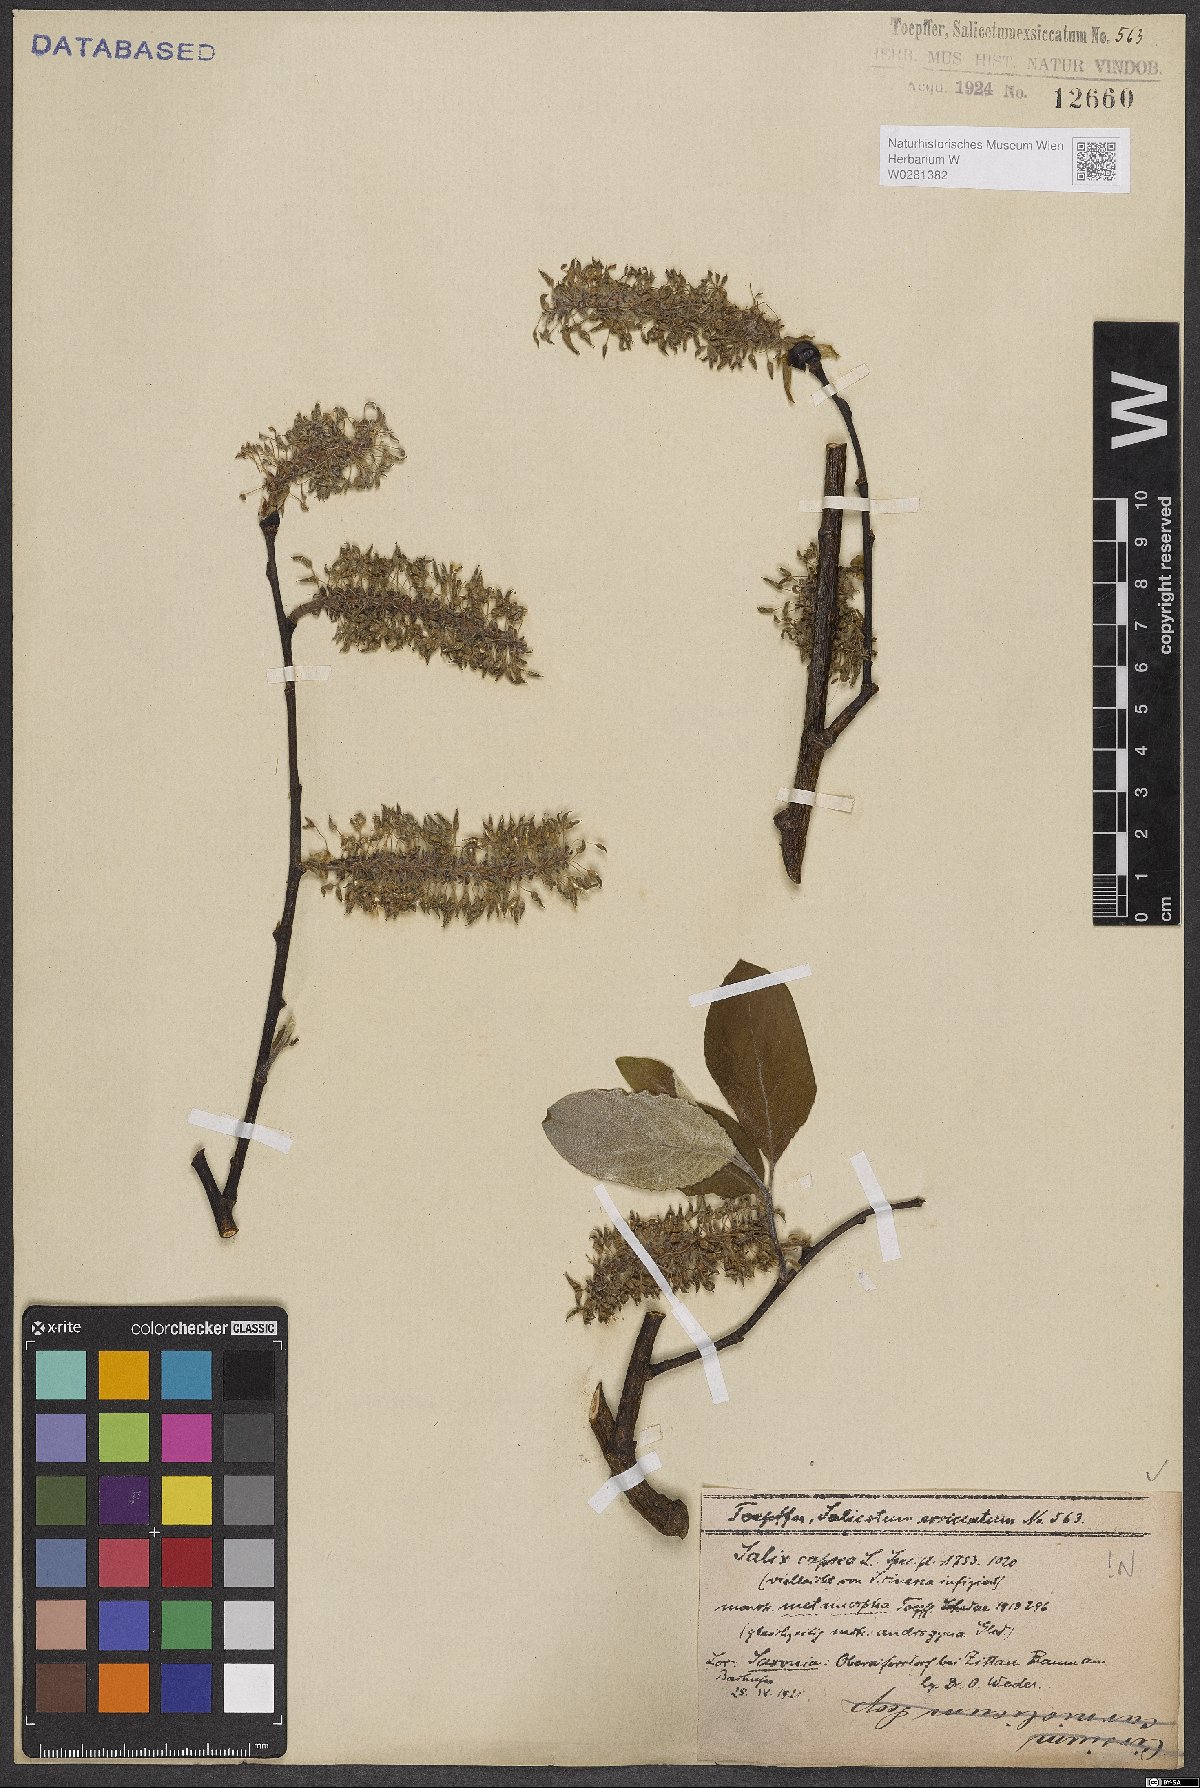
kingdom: Plantae
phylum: Tracheophyta
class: Magnoliopsida
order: Malpighiales
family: Salicaceae
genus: Salix
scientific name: Salix caprea
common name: Goat willow
